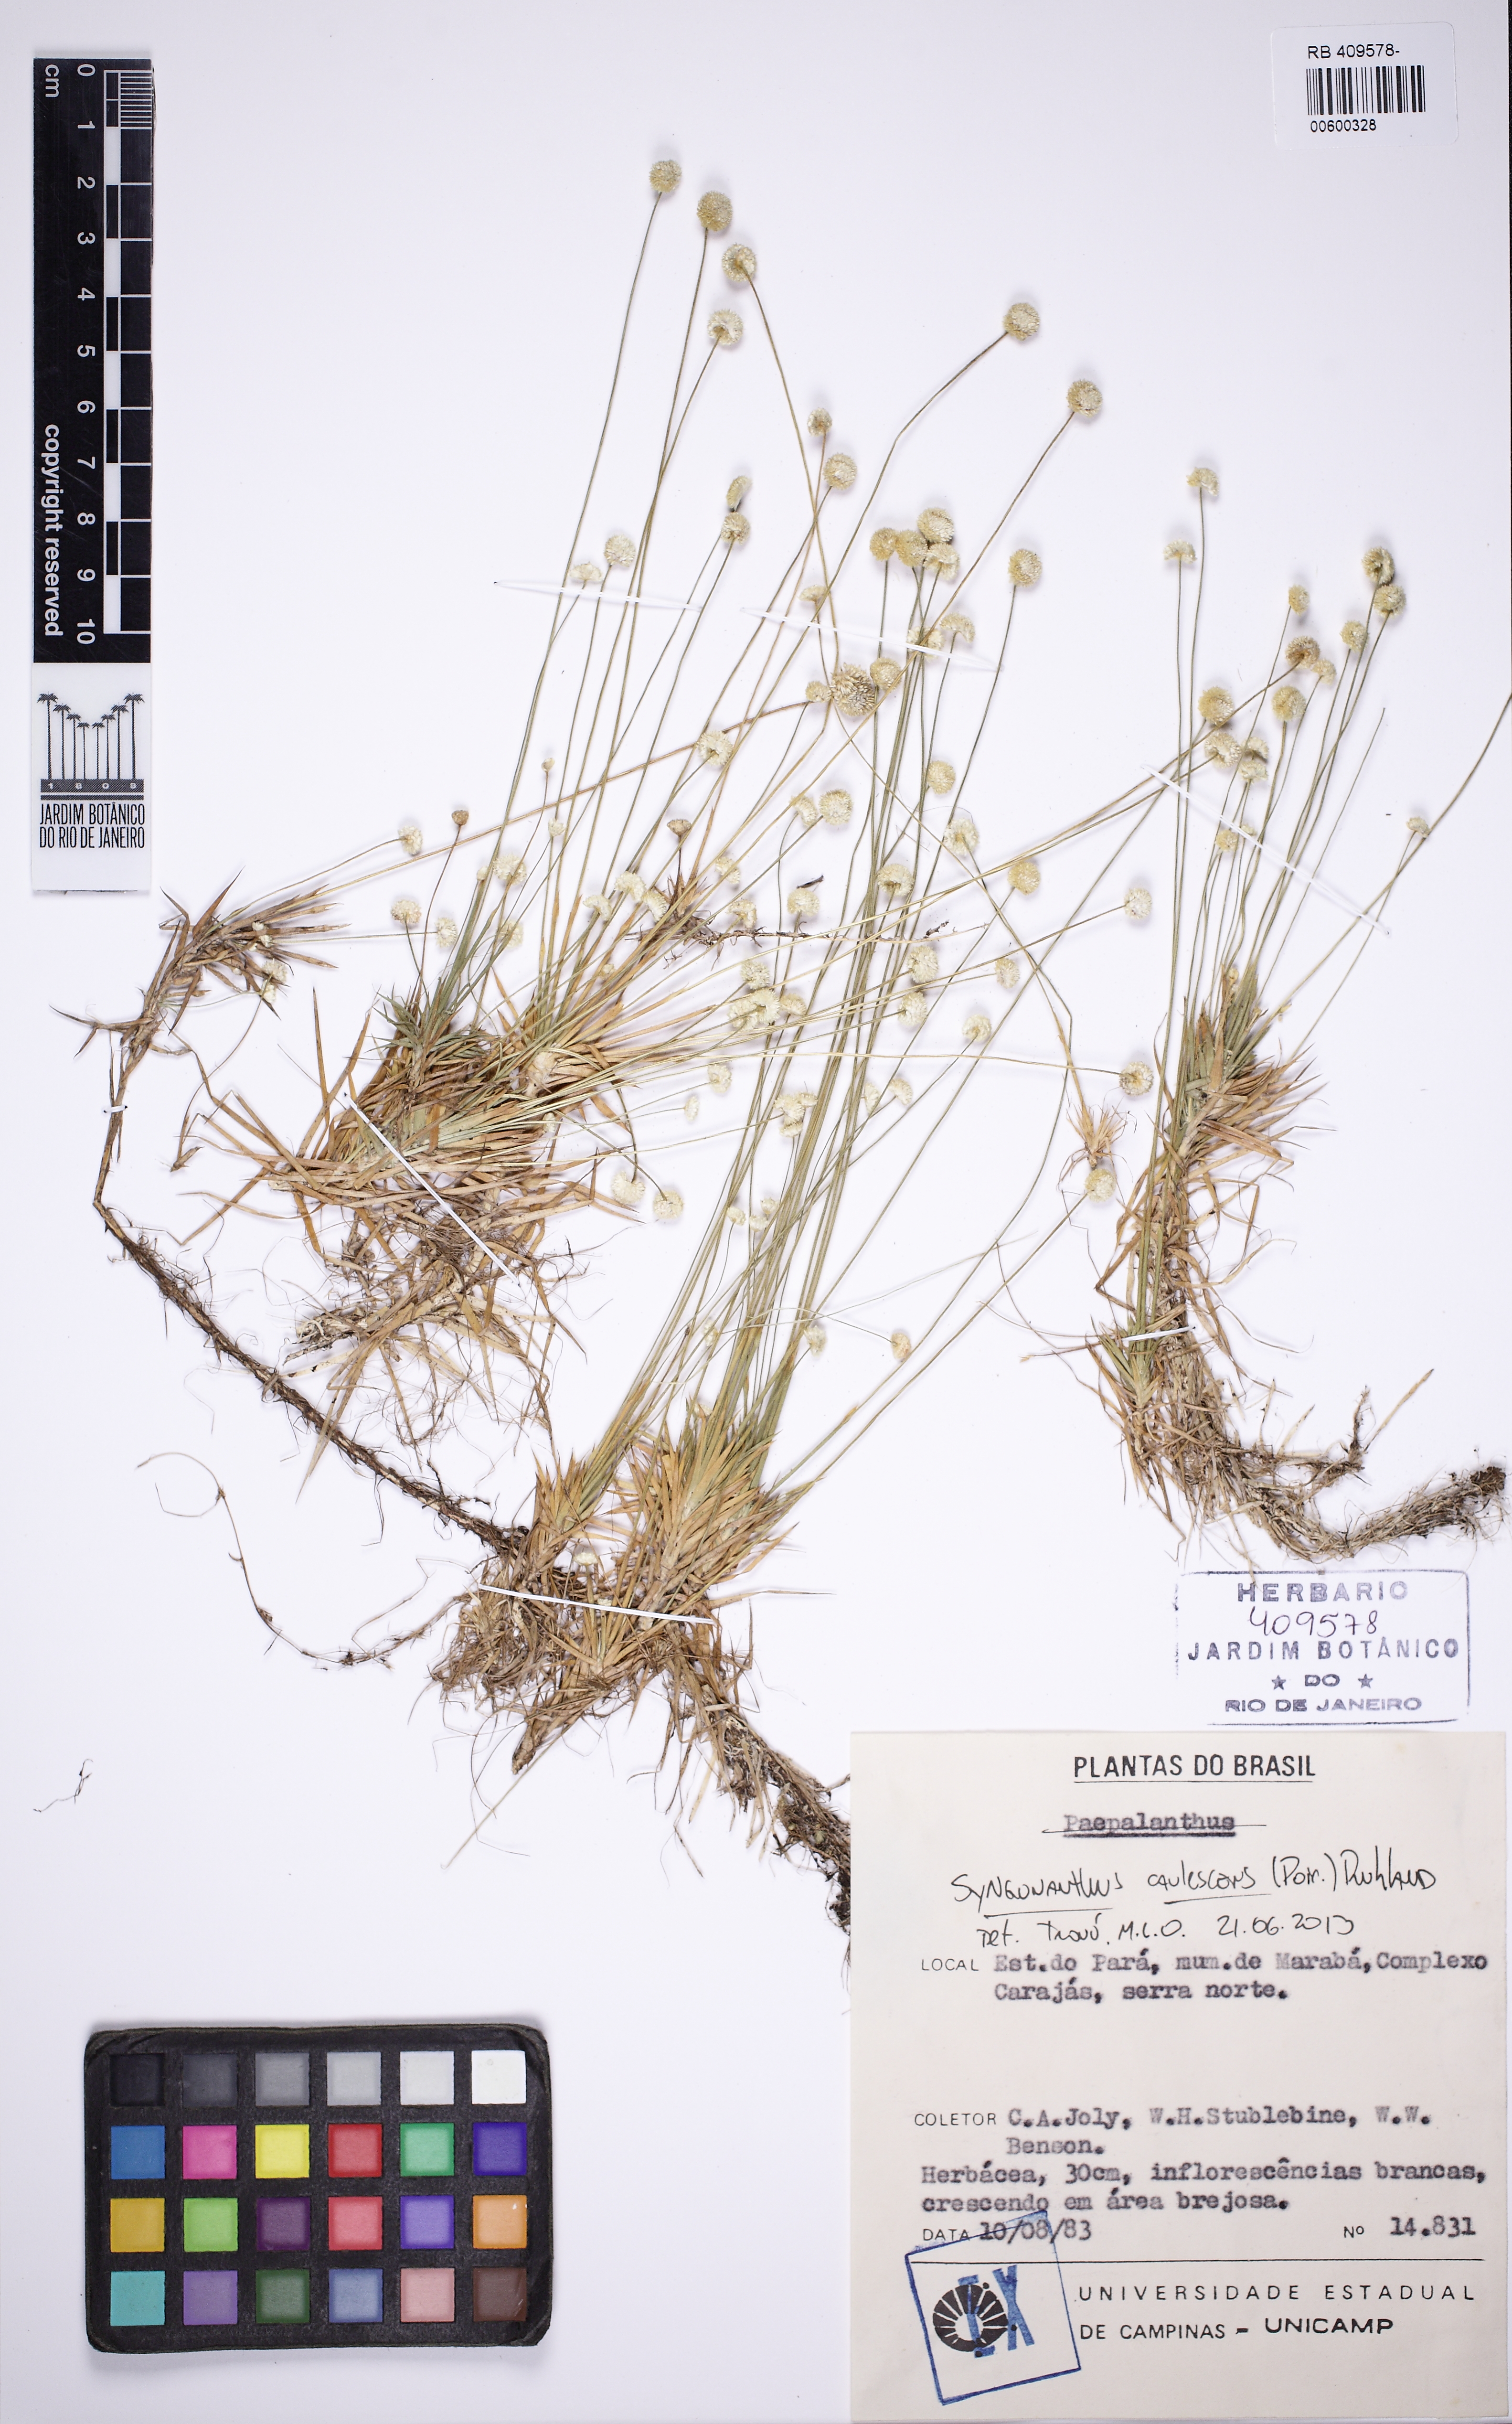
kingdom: Plantae
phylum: Tracheophyta
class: Liliopsida
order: Poales
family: Eriocaulaceae
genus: Syngonanthus
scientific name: Syngonanthus discretifolius
